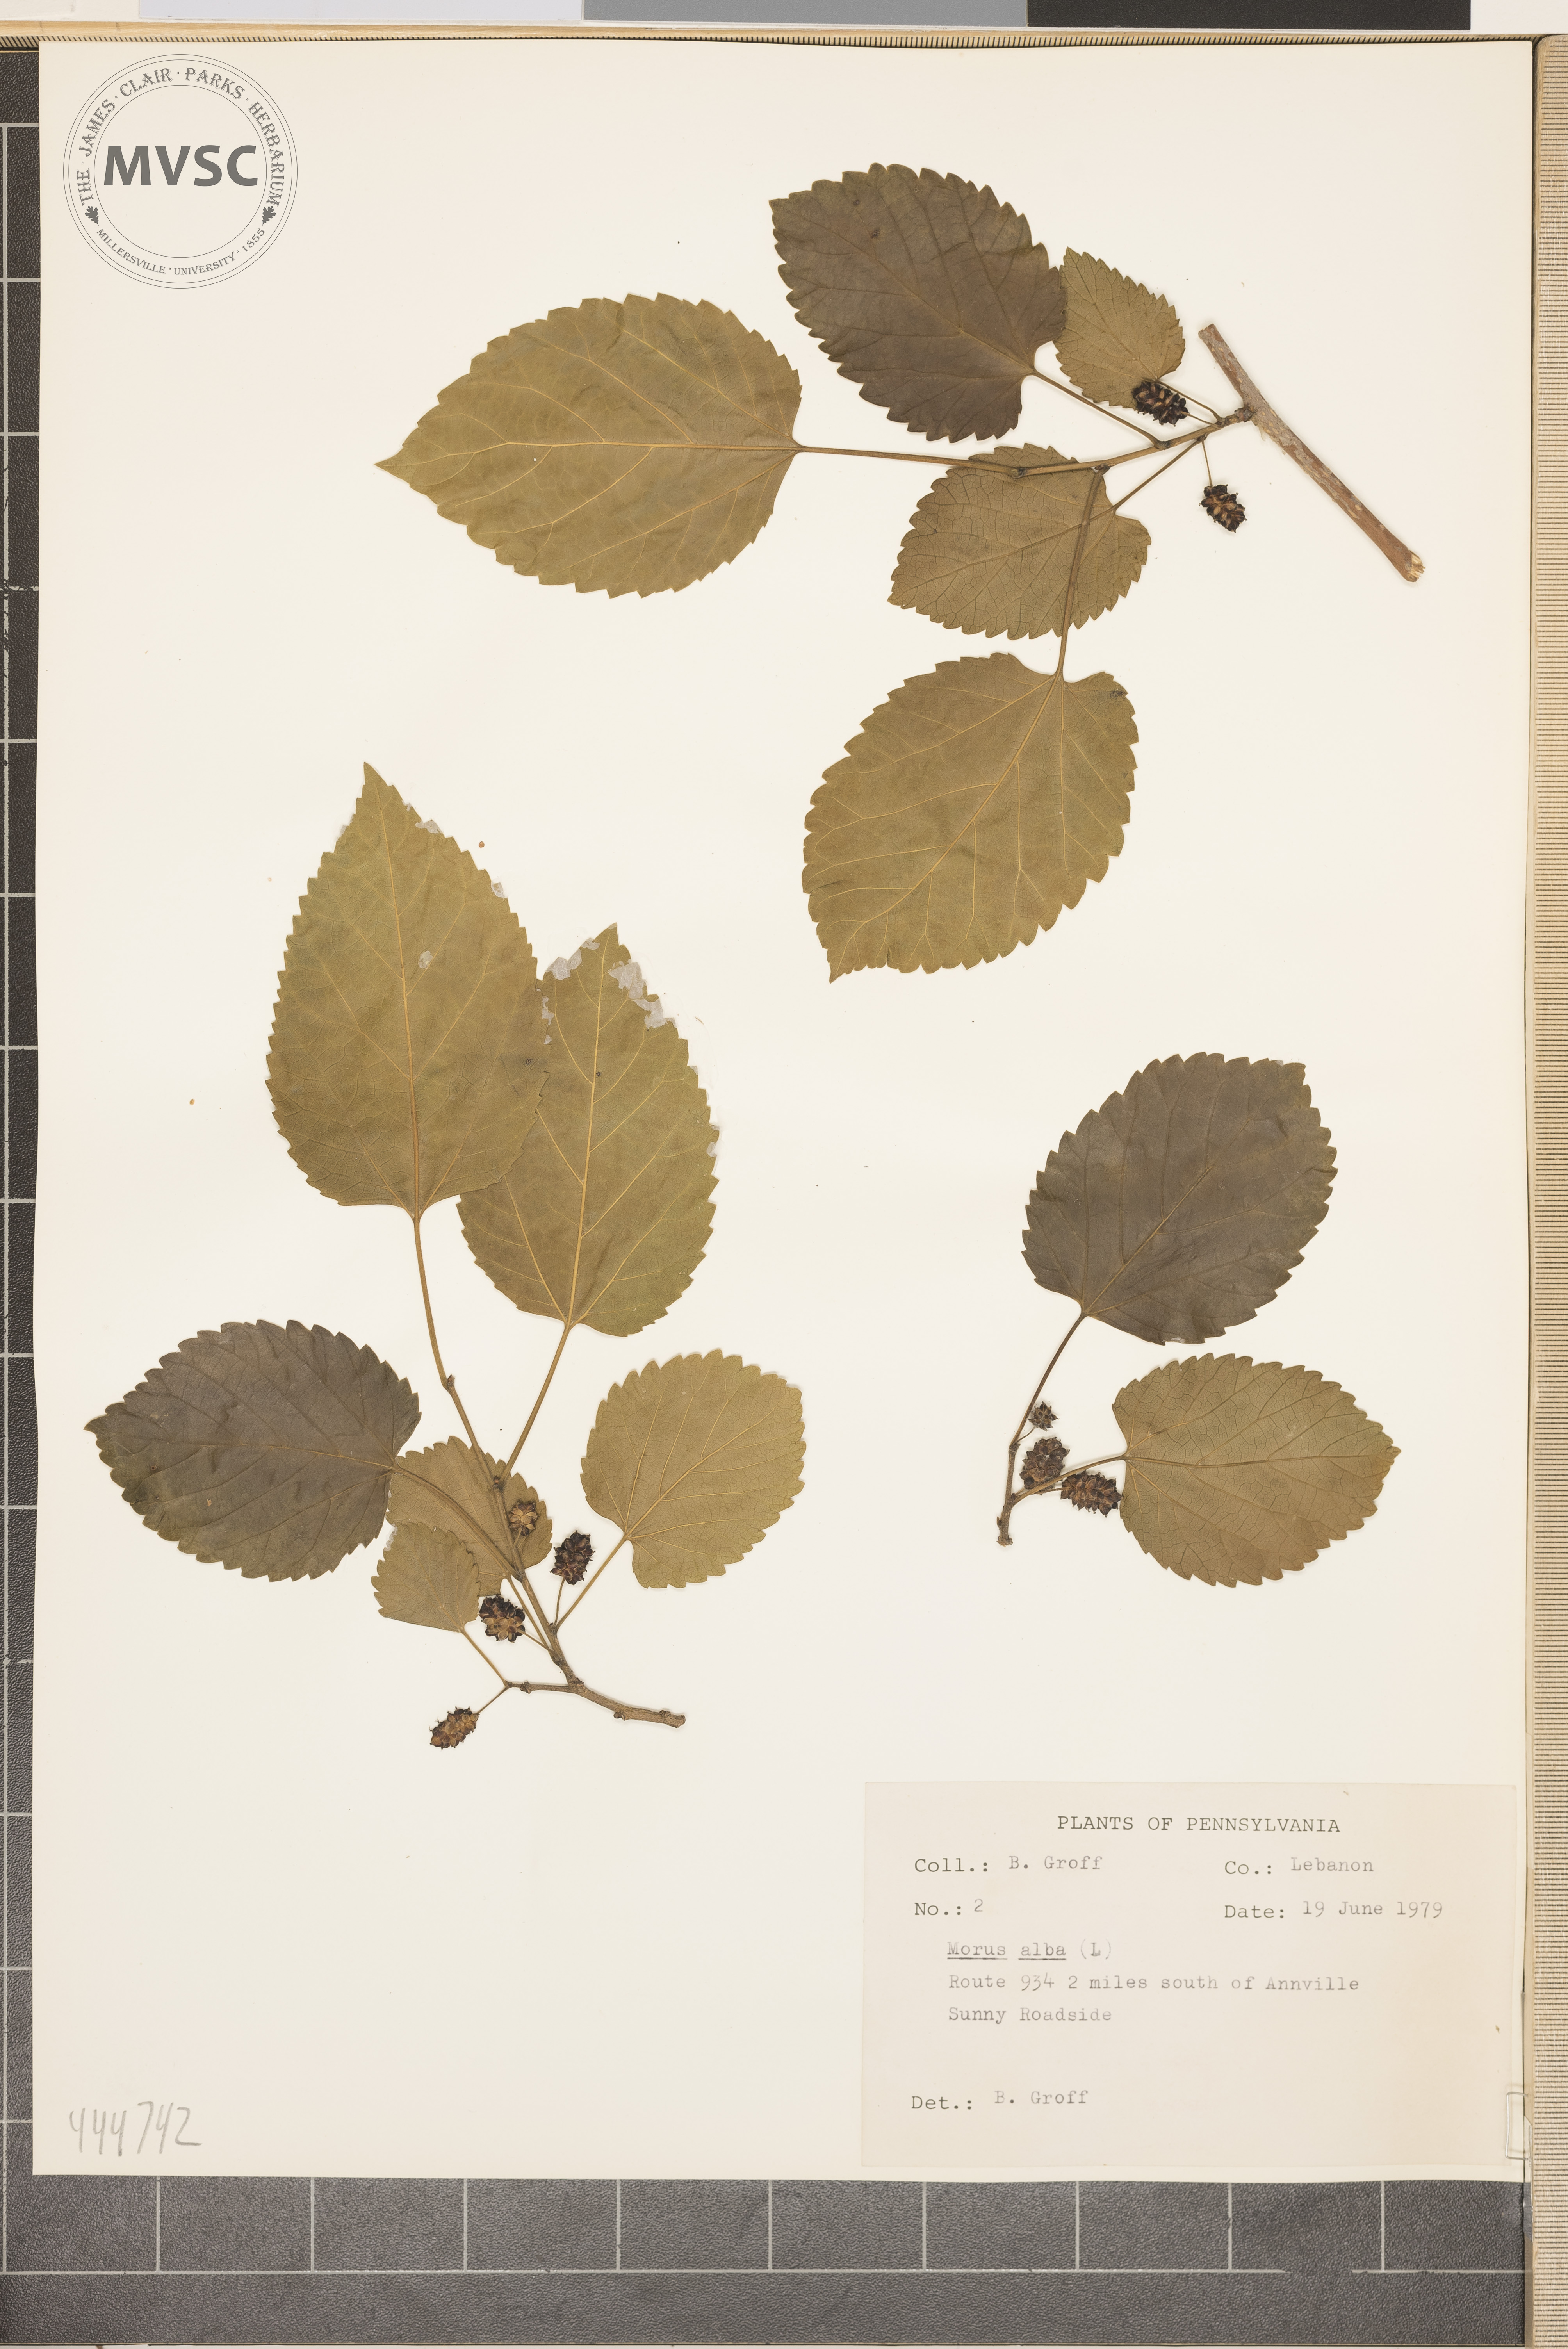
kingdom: Plantae
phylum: Tracheophyta
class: Magnoliopsida
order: Rosales
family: Moraceae
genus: Morus
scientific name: Morus alba
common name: White mulberry
